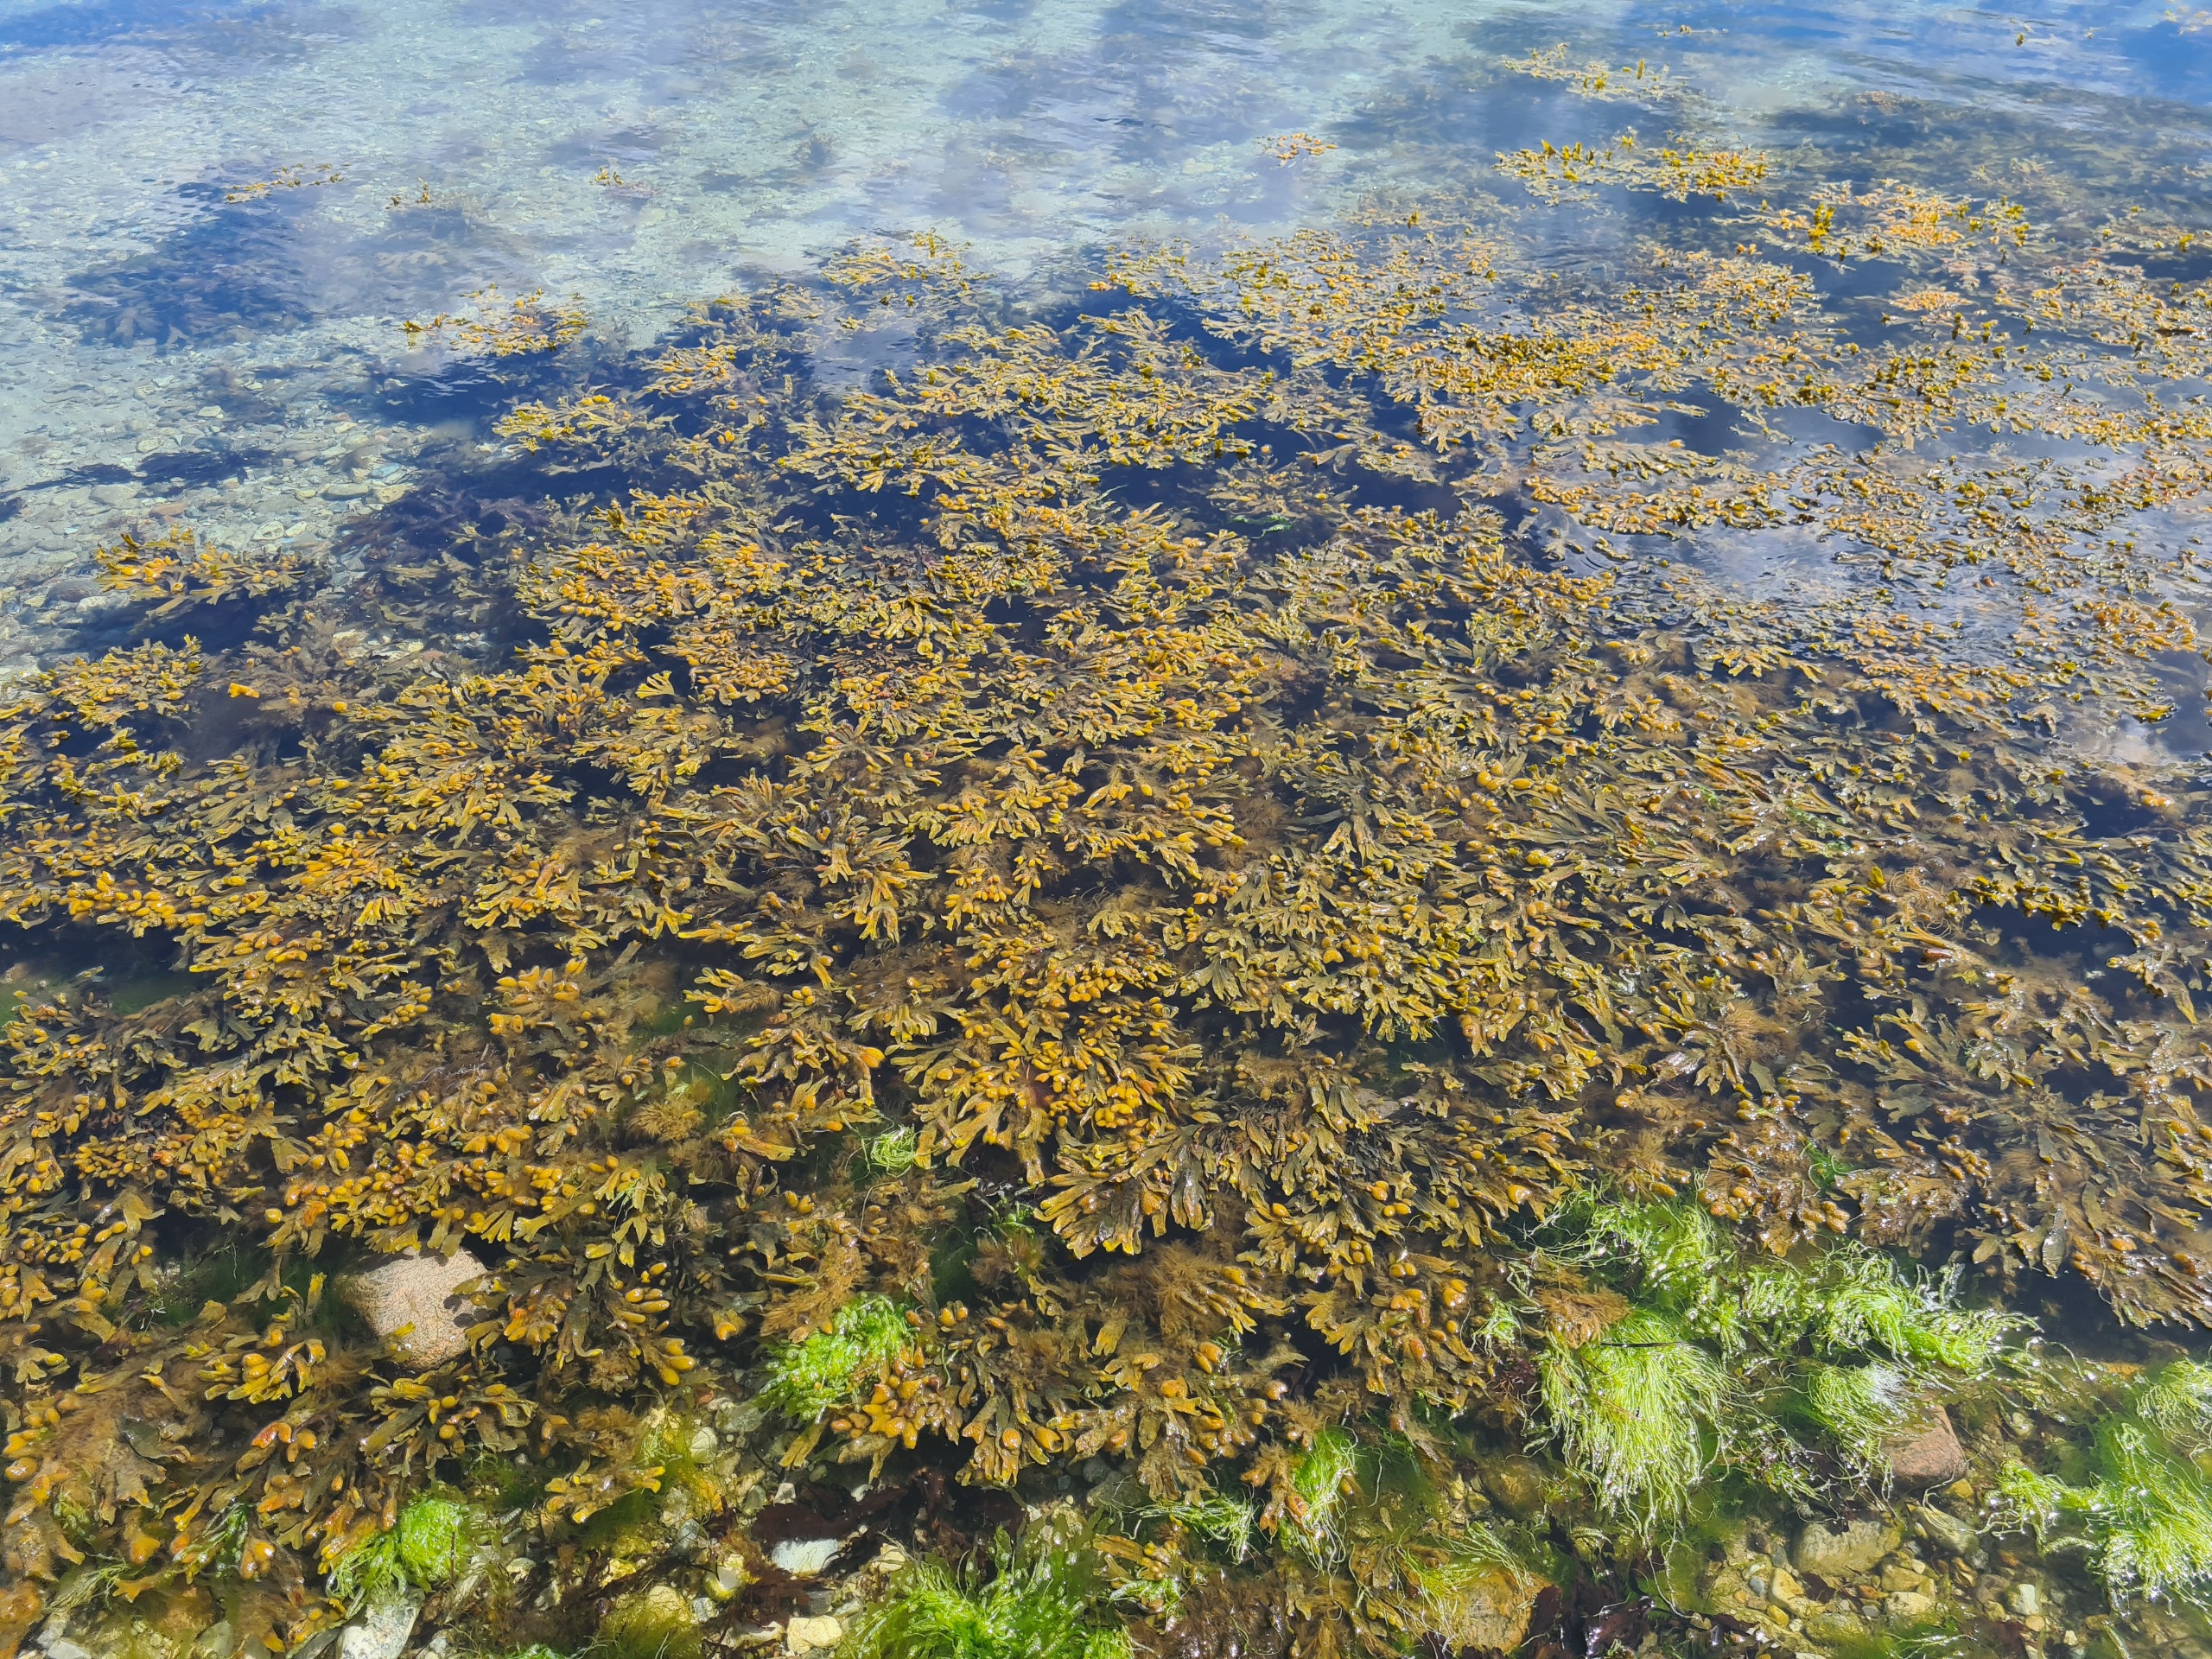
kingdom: Chromista
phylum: Ochrophyta
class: Phaeophyceae
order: Fucales
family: Fucaceae
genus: Fucus
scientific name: Fucus vesiculosus
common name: Blæretang
